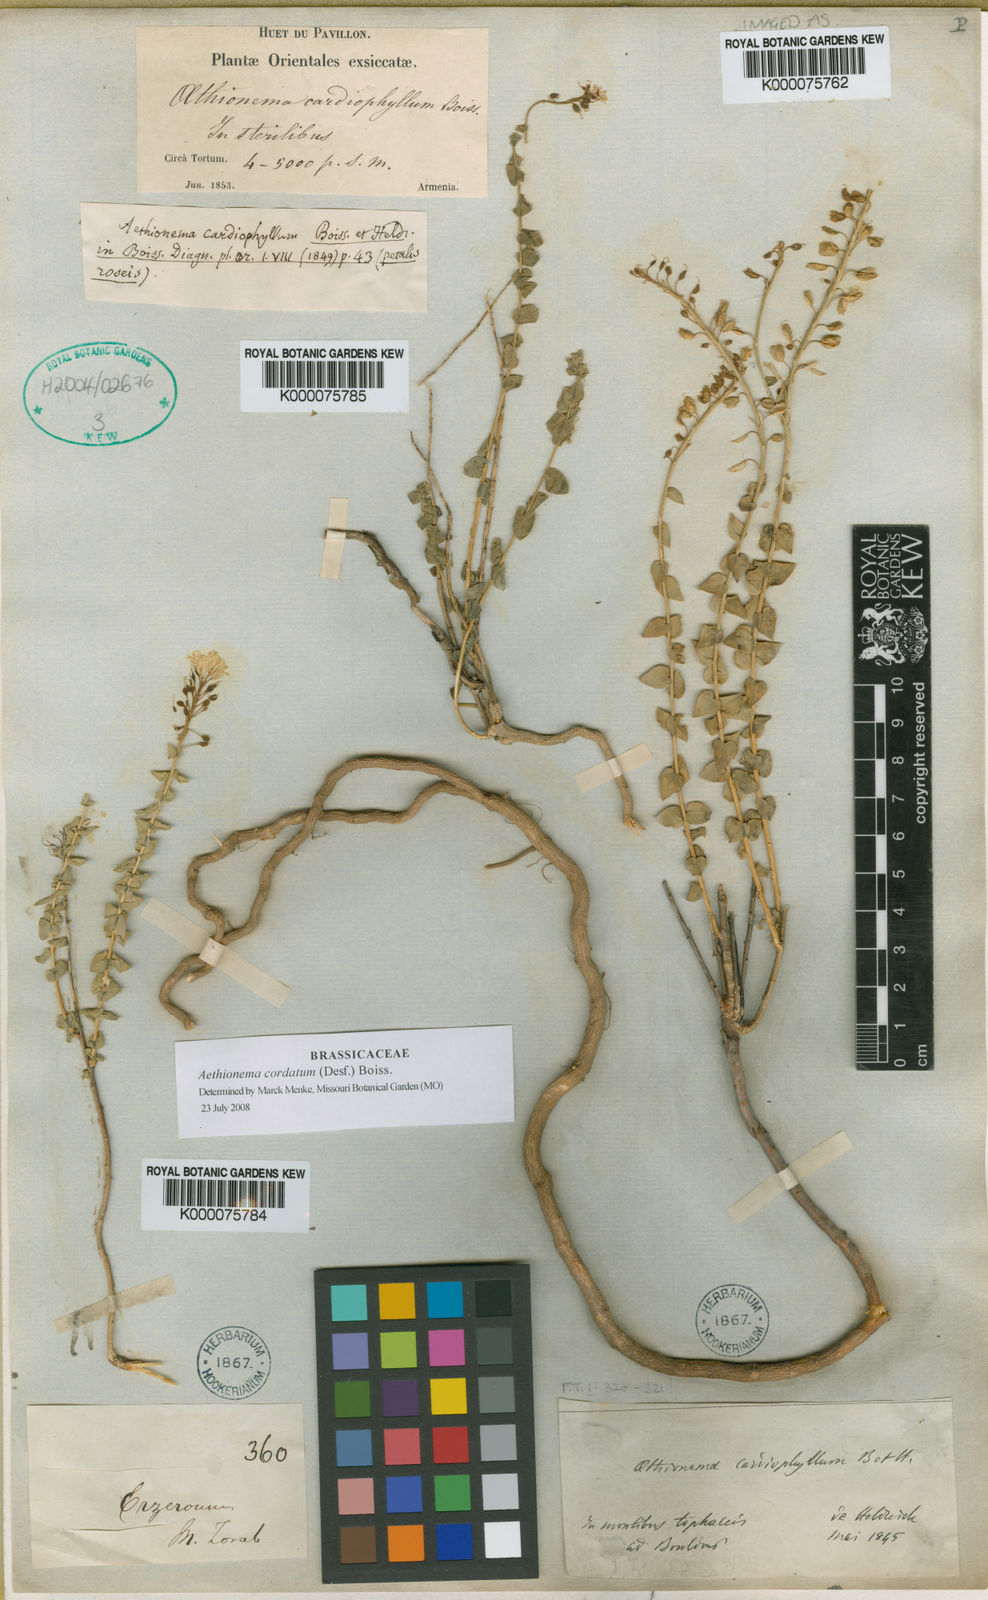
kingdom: Plantae
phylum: Tracheophyta
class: Magnoliopsida
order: Brassicales
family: Brassicaceae
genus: Aethionema
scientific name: Aethionema cordatum
